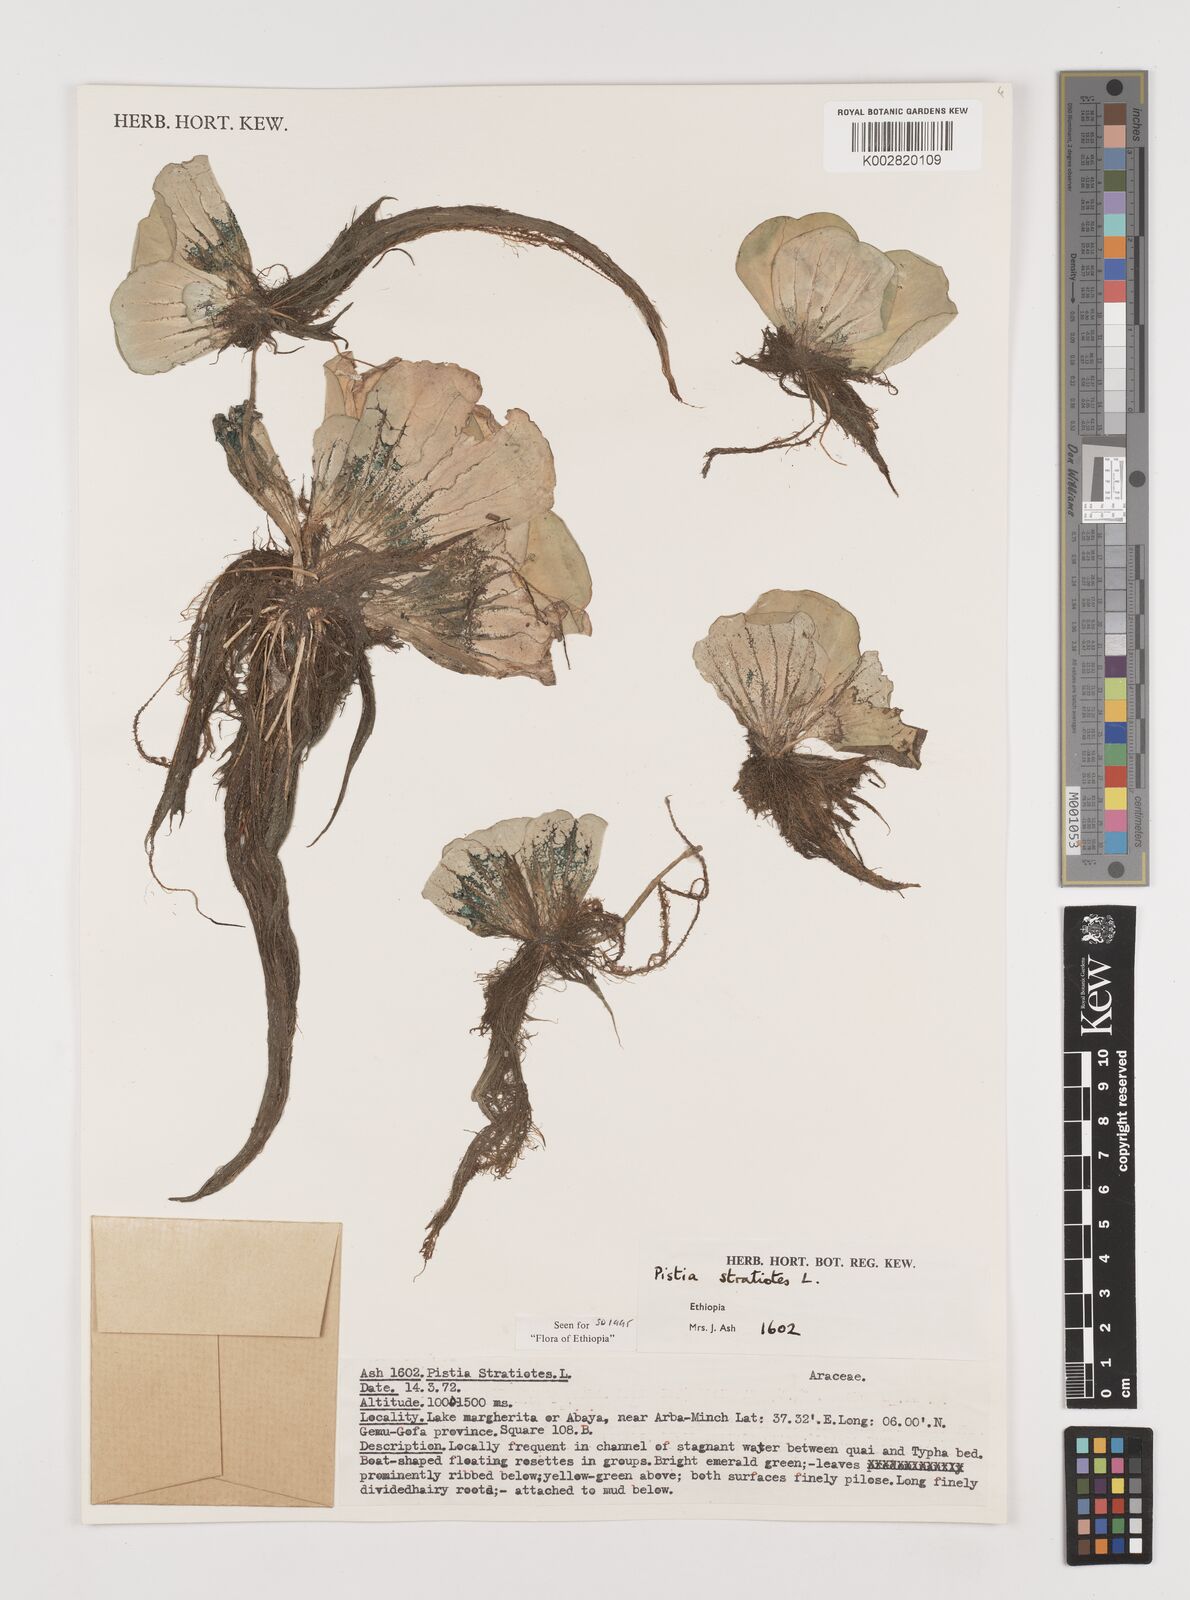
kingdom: Plantae
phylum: Tracheophyta
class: Liliopsida
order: Alismatales
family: Araceae
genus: Pistia
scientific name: Pistia stratiotes
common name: Water lettuce
